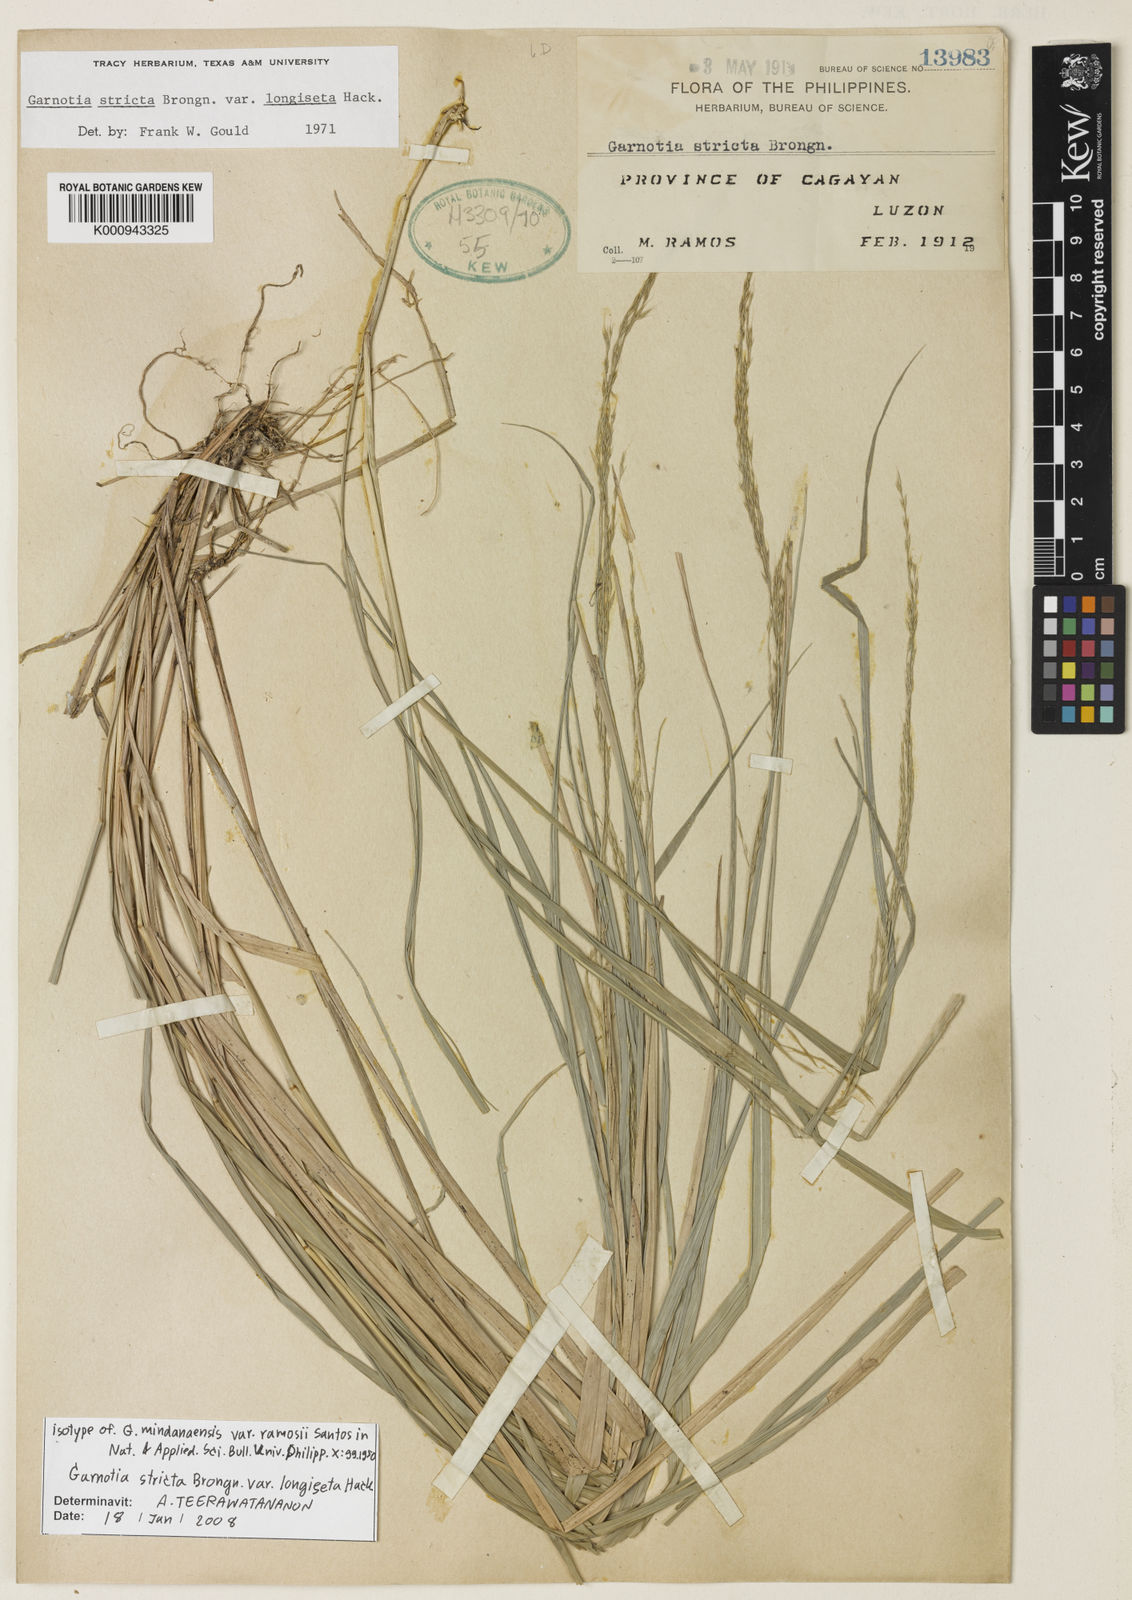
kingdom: Plantae
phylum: Tracheophyta
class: Liliopsida
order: Poales
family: Poaceae
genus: Garnotia
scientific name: Garnotia stricta
